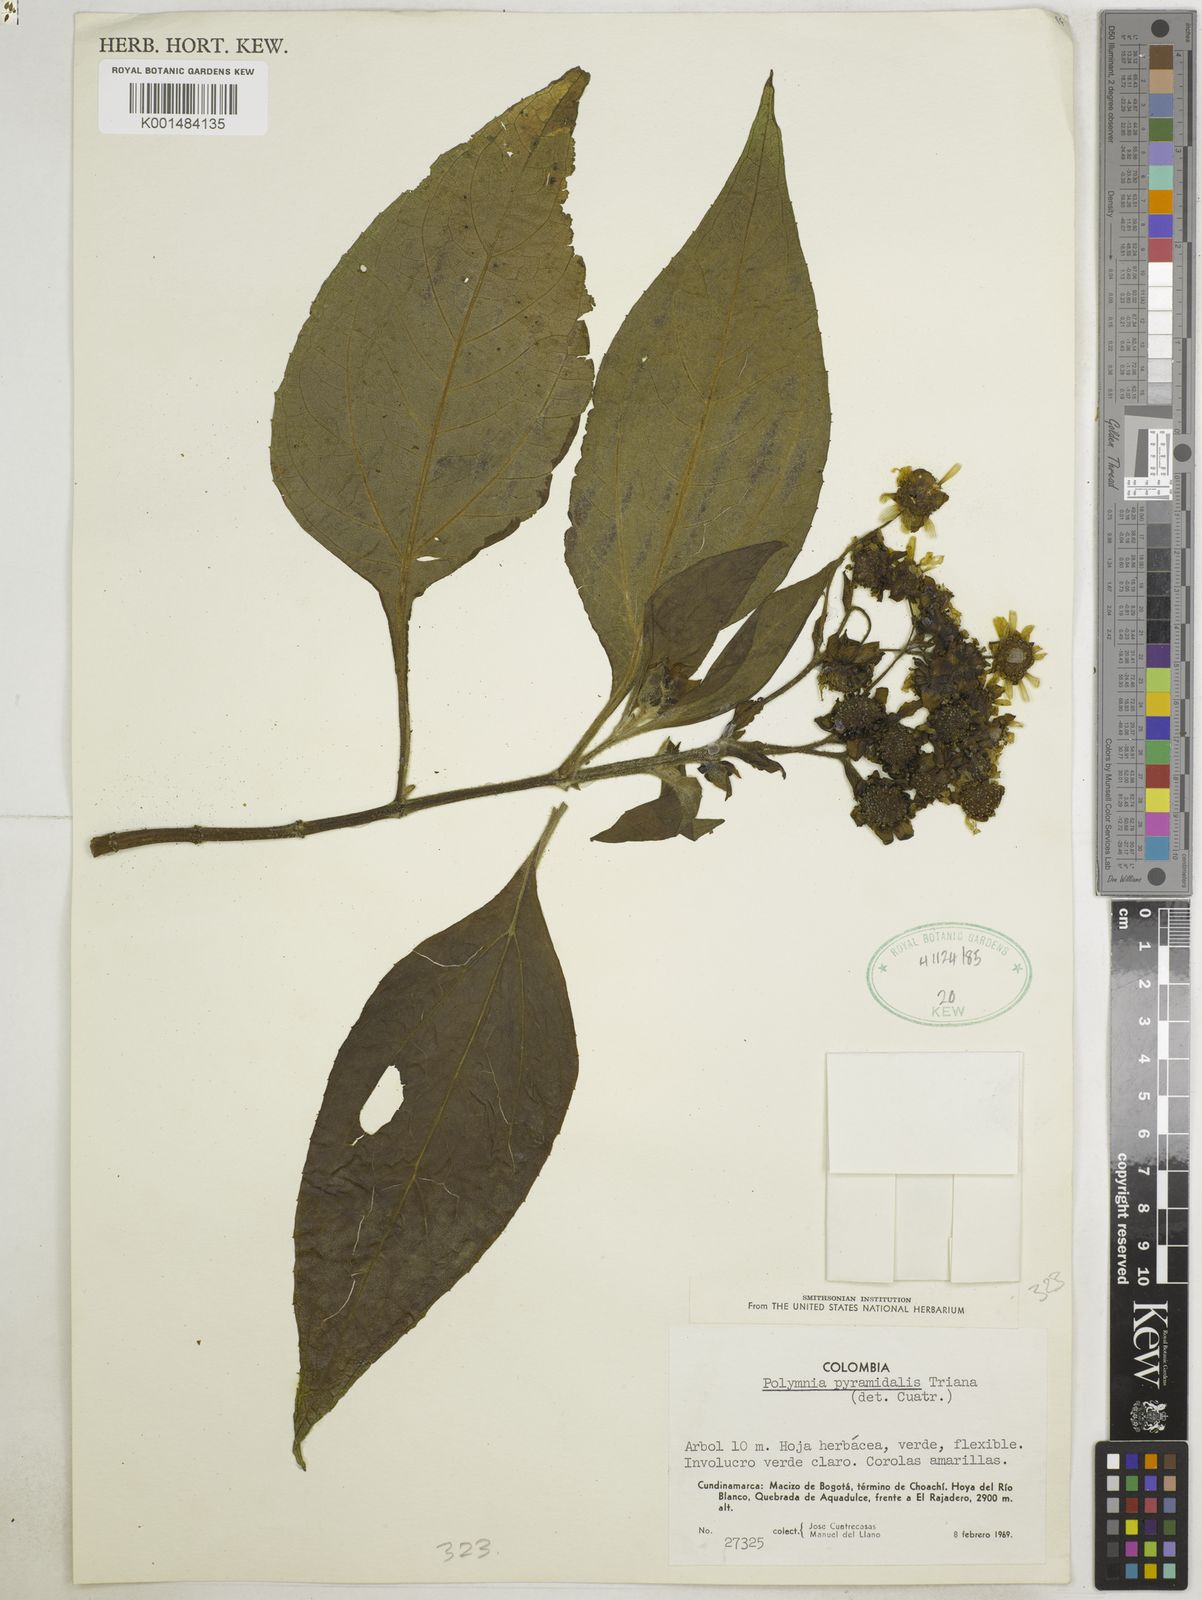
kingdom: Plantae
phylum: Tracheophyta
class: Magnoliopsida
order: Asterales
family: Asteraceae
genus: Smallanthus
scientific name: Smallanthus pyramidalis
